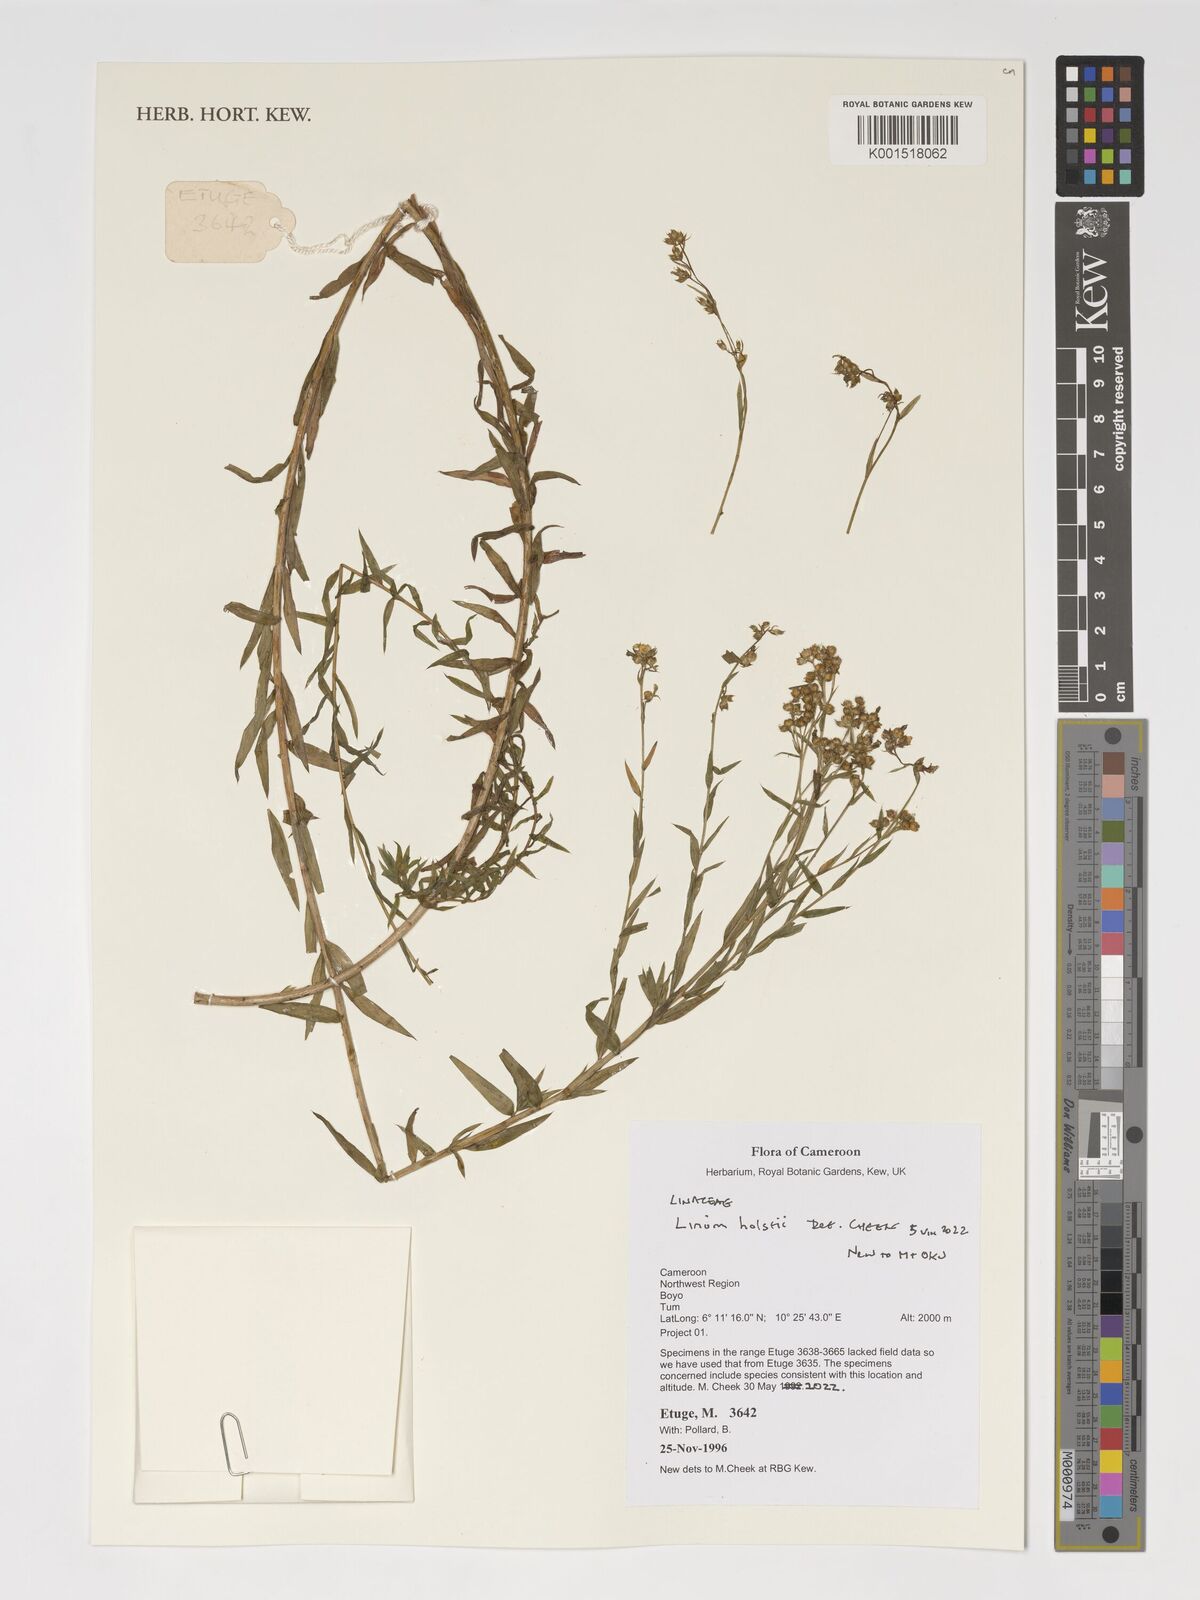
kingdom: Plantae
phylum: Tracheophyta
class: Magnoliopsida
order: Malpighiales
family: Linaceae
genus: Linum
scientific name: Linum volkensii
